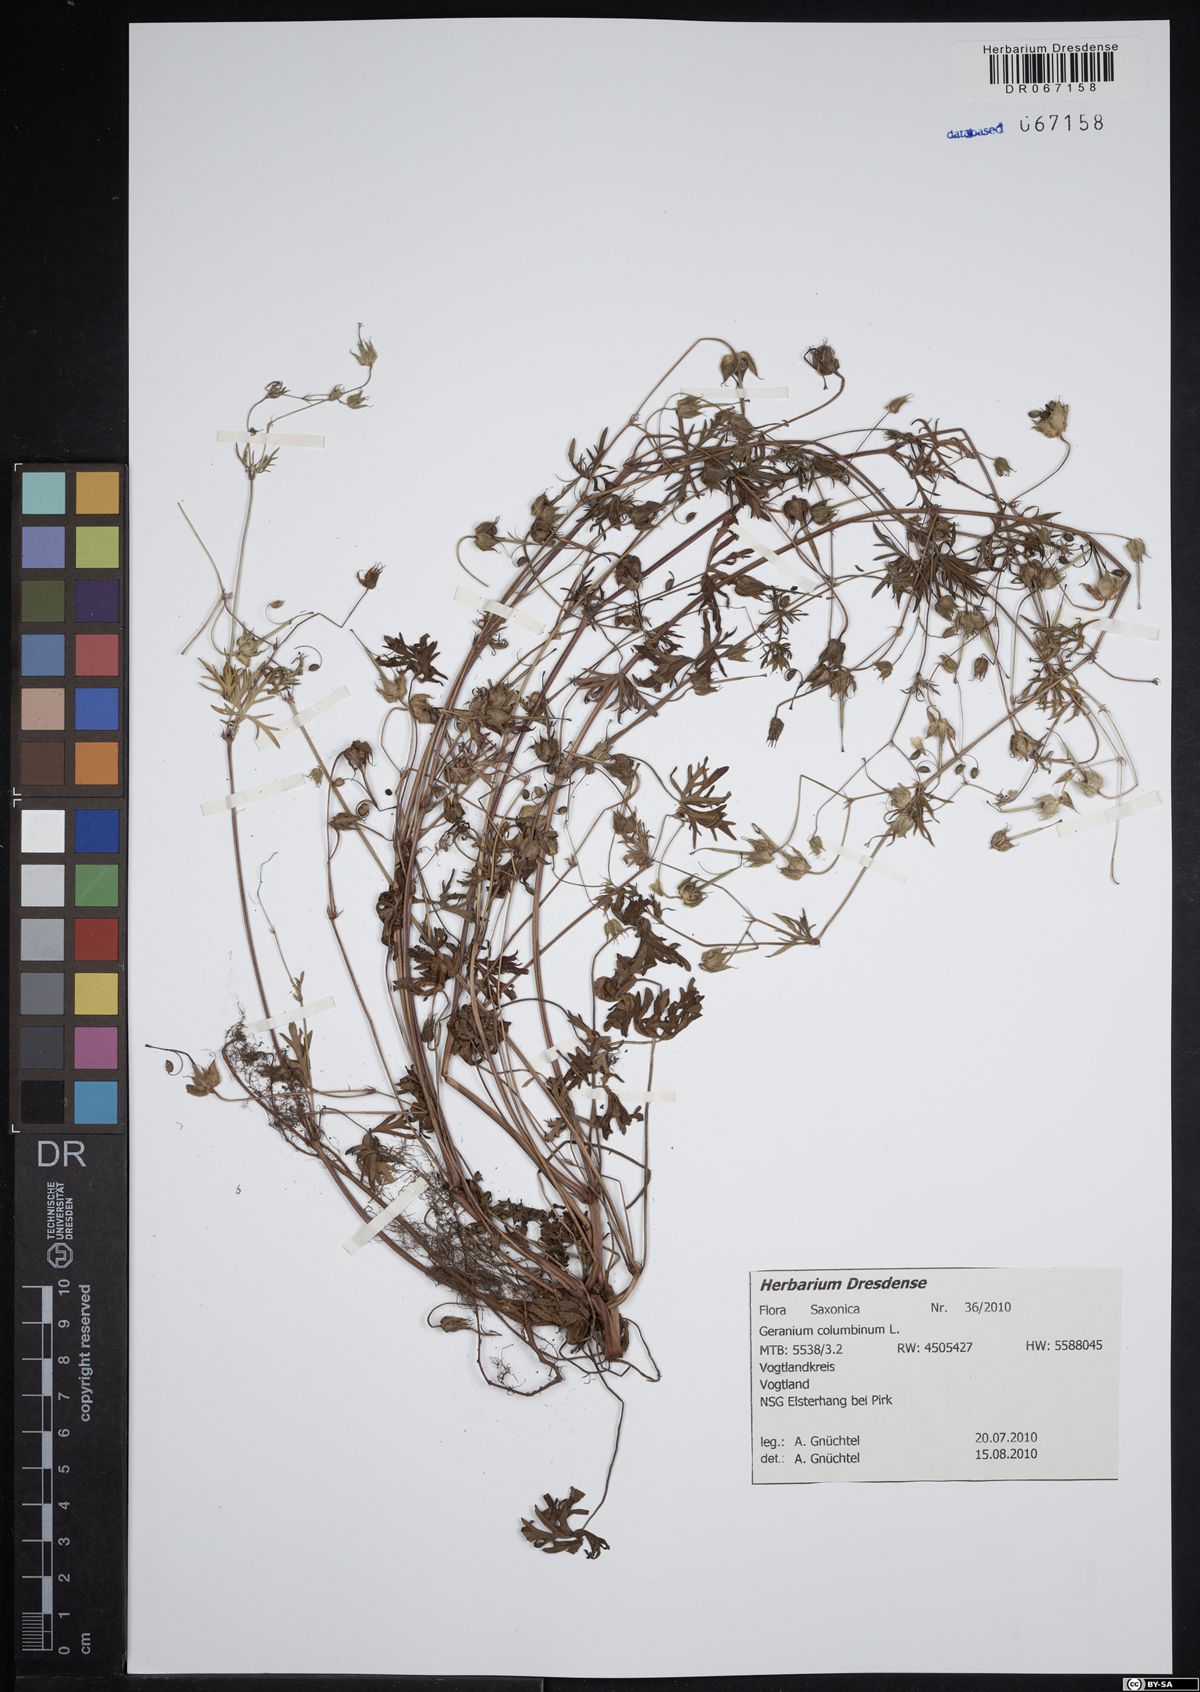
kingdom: Plantae
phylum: Tracheophyta
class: Magnoliopsida
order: Geraniales
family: Geraniaceae
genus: Geranium
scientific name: Geranium columbinum
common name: Long-stalked crane's-bill
